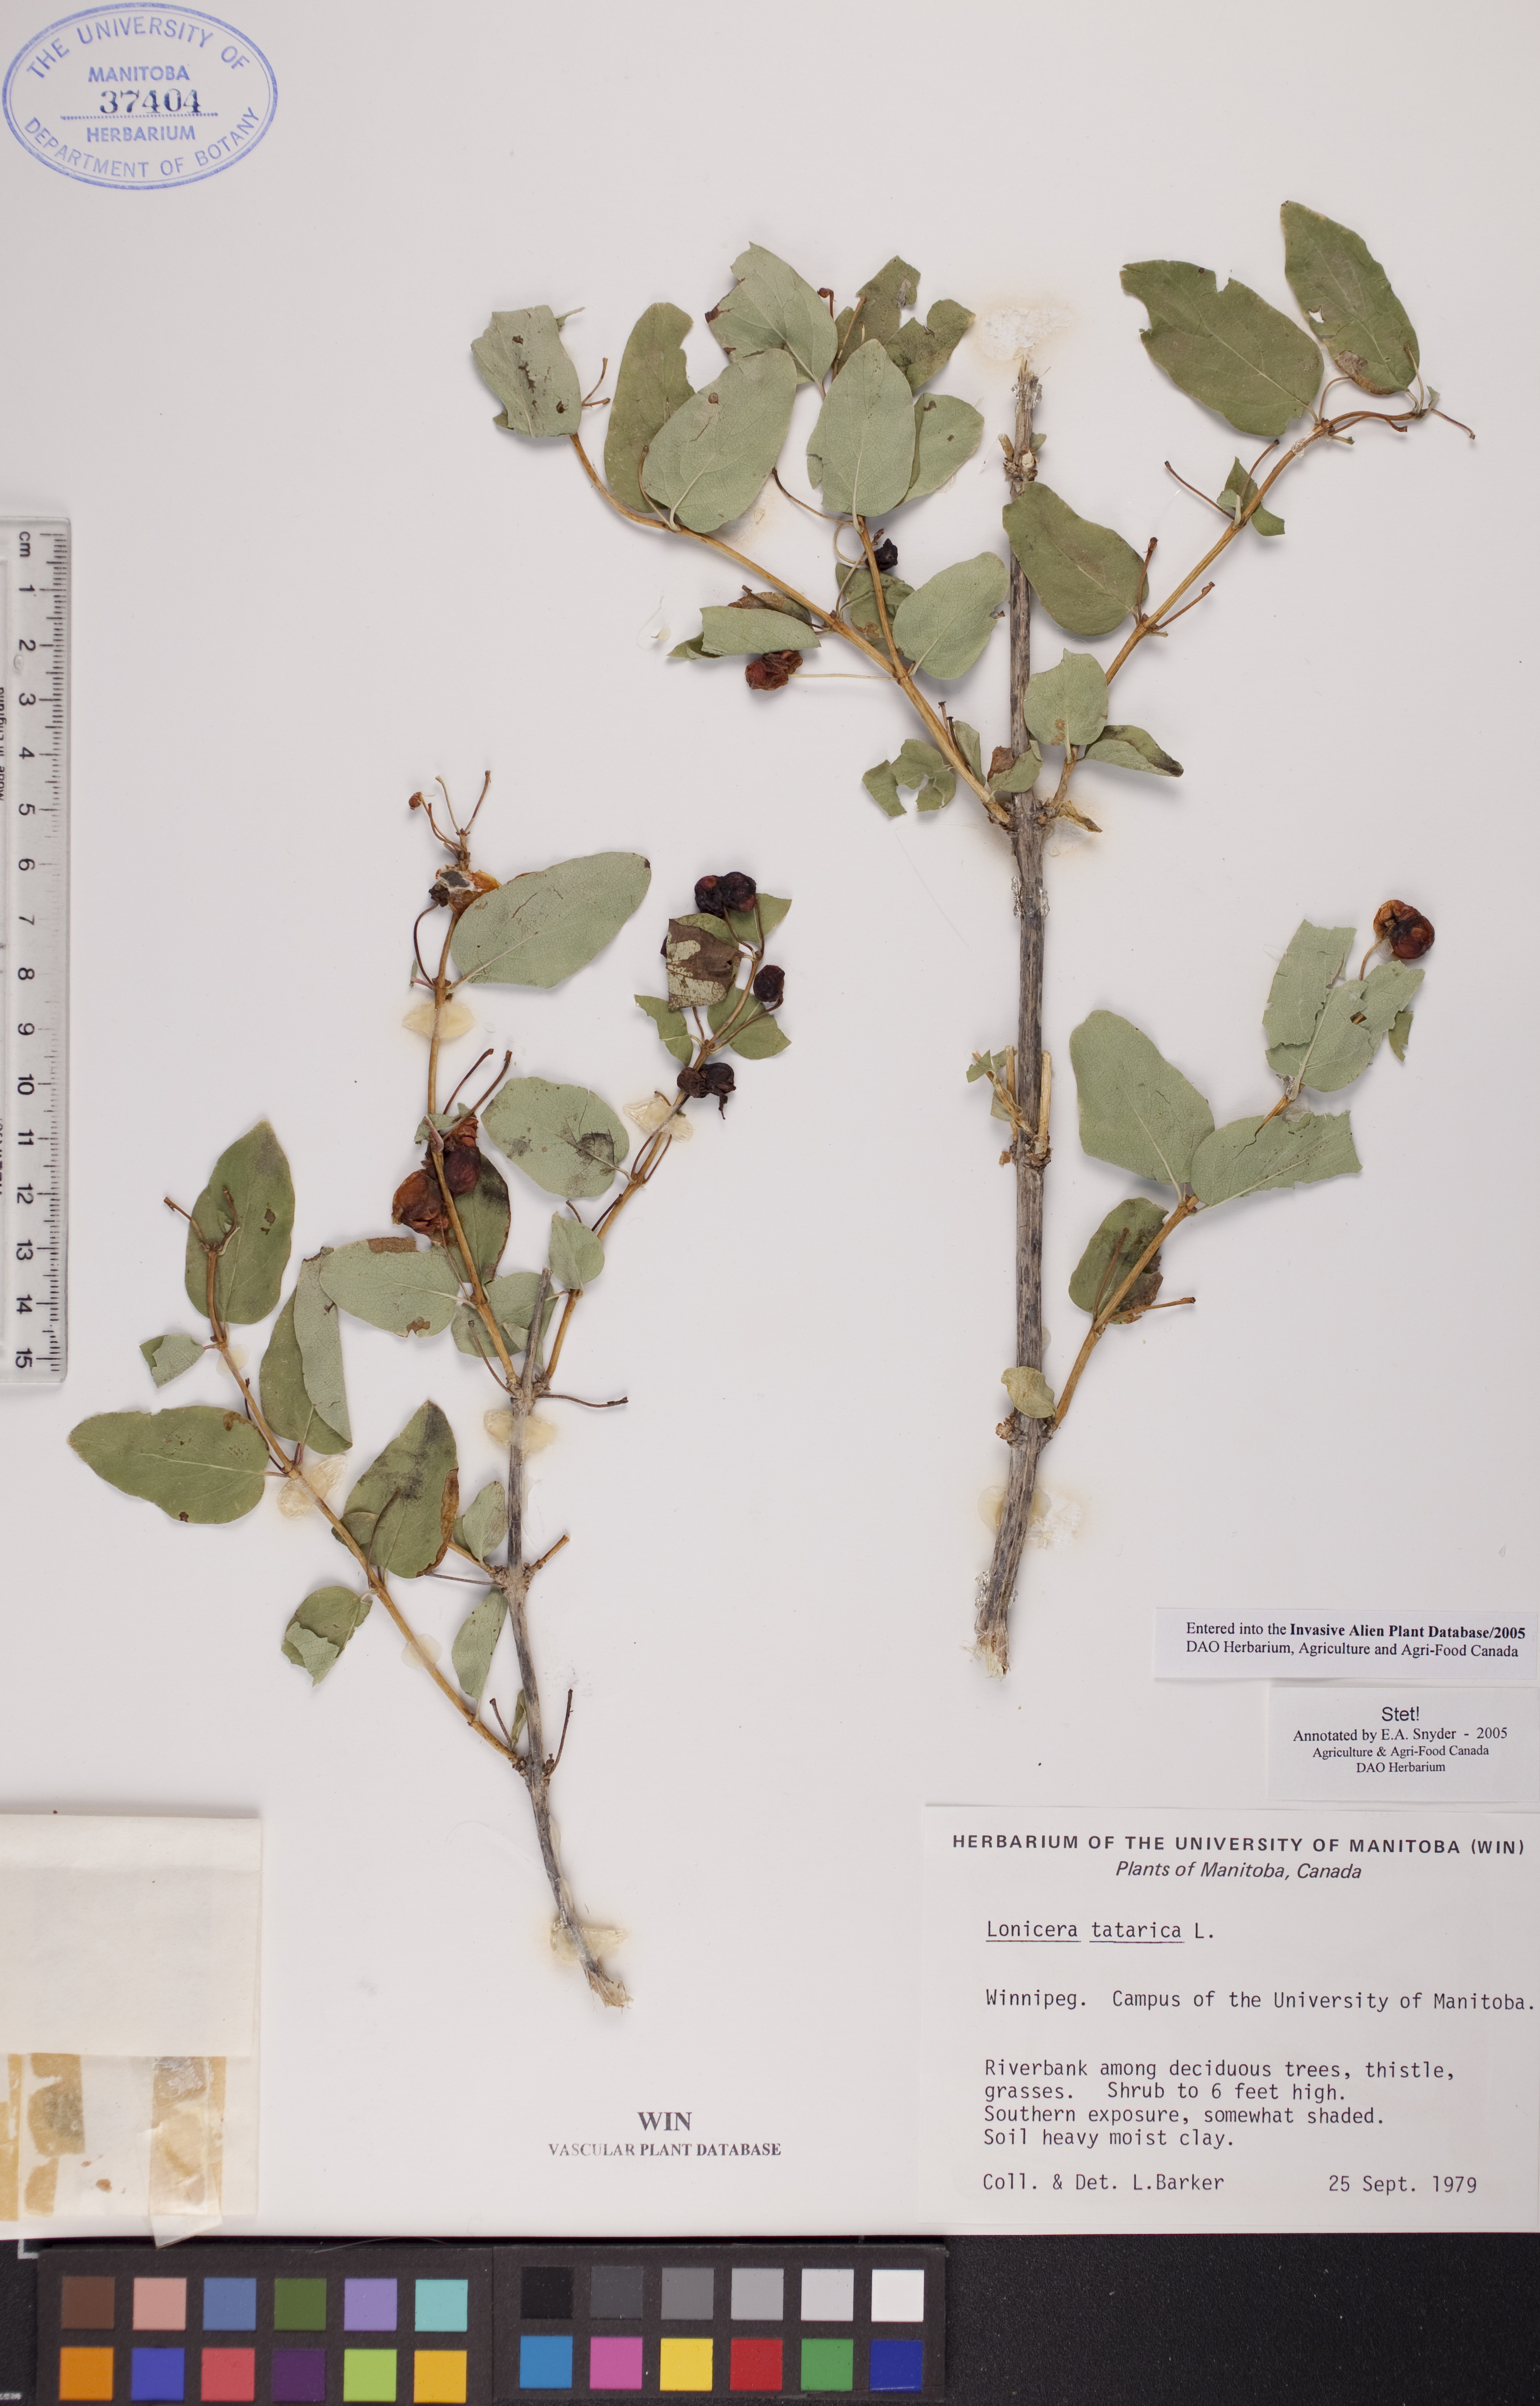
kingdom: Plantae
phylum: Tracheophyta
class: Magnoliopsida
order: Dipsacales
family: Caprifoliaceae
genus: Lonicera
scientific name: Lonicera tatarica
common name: Tatarian honeysuckle
